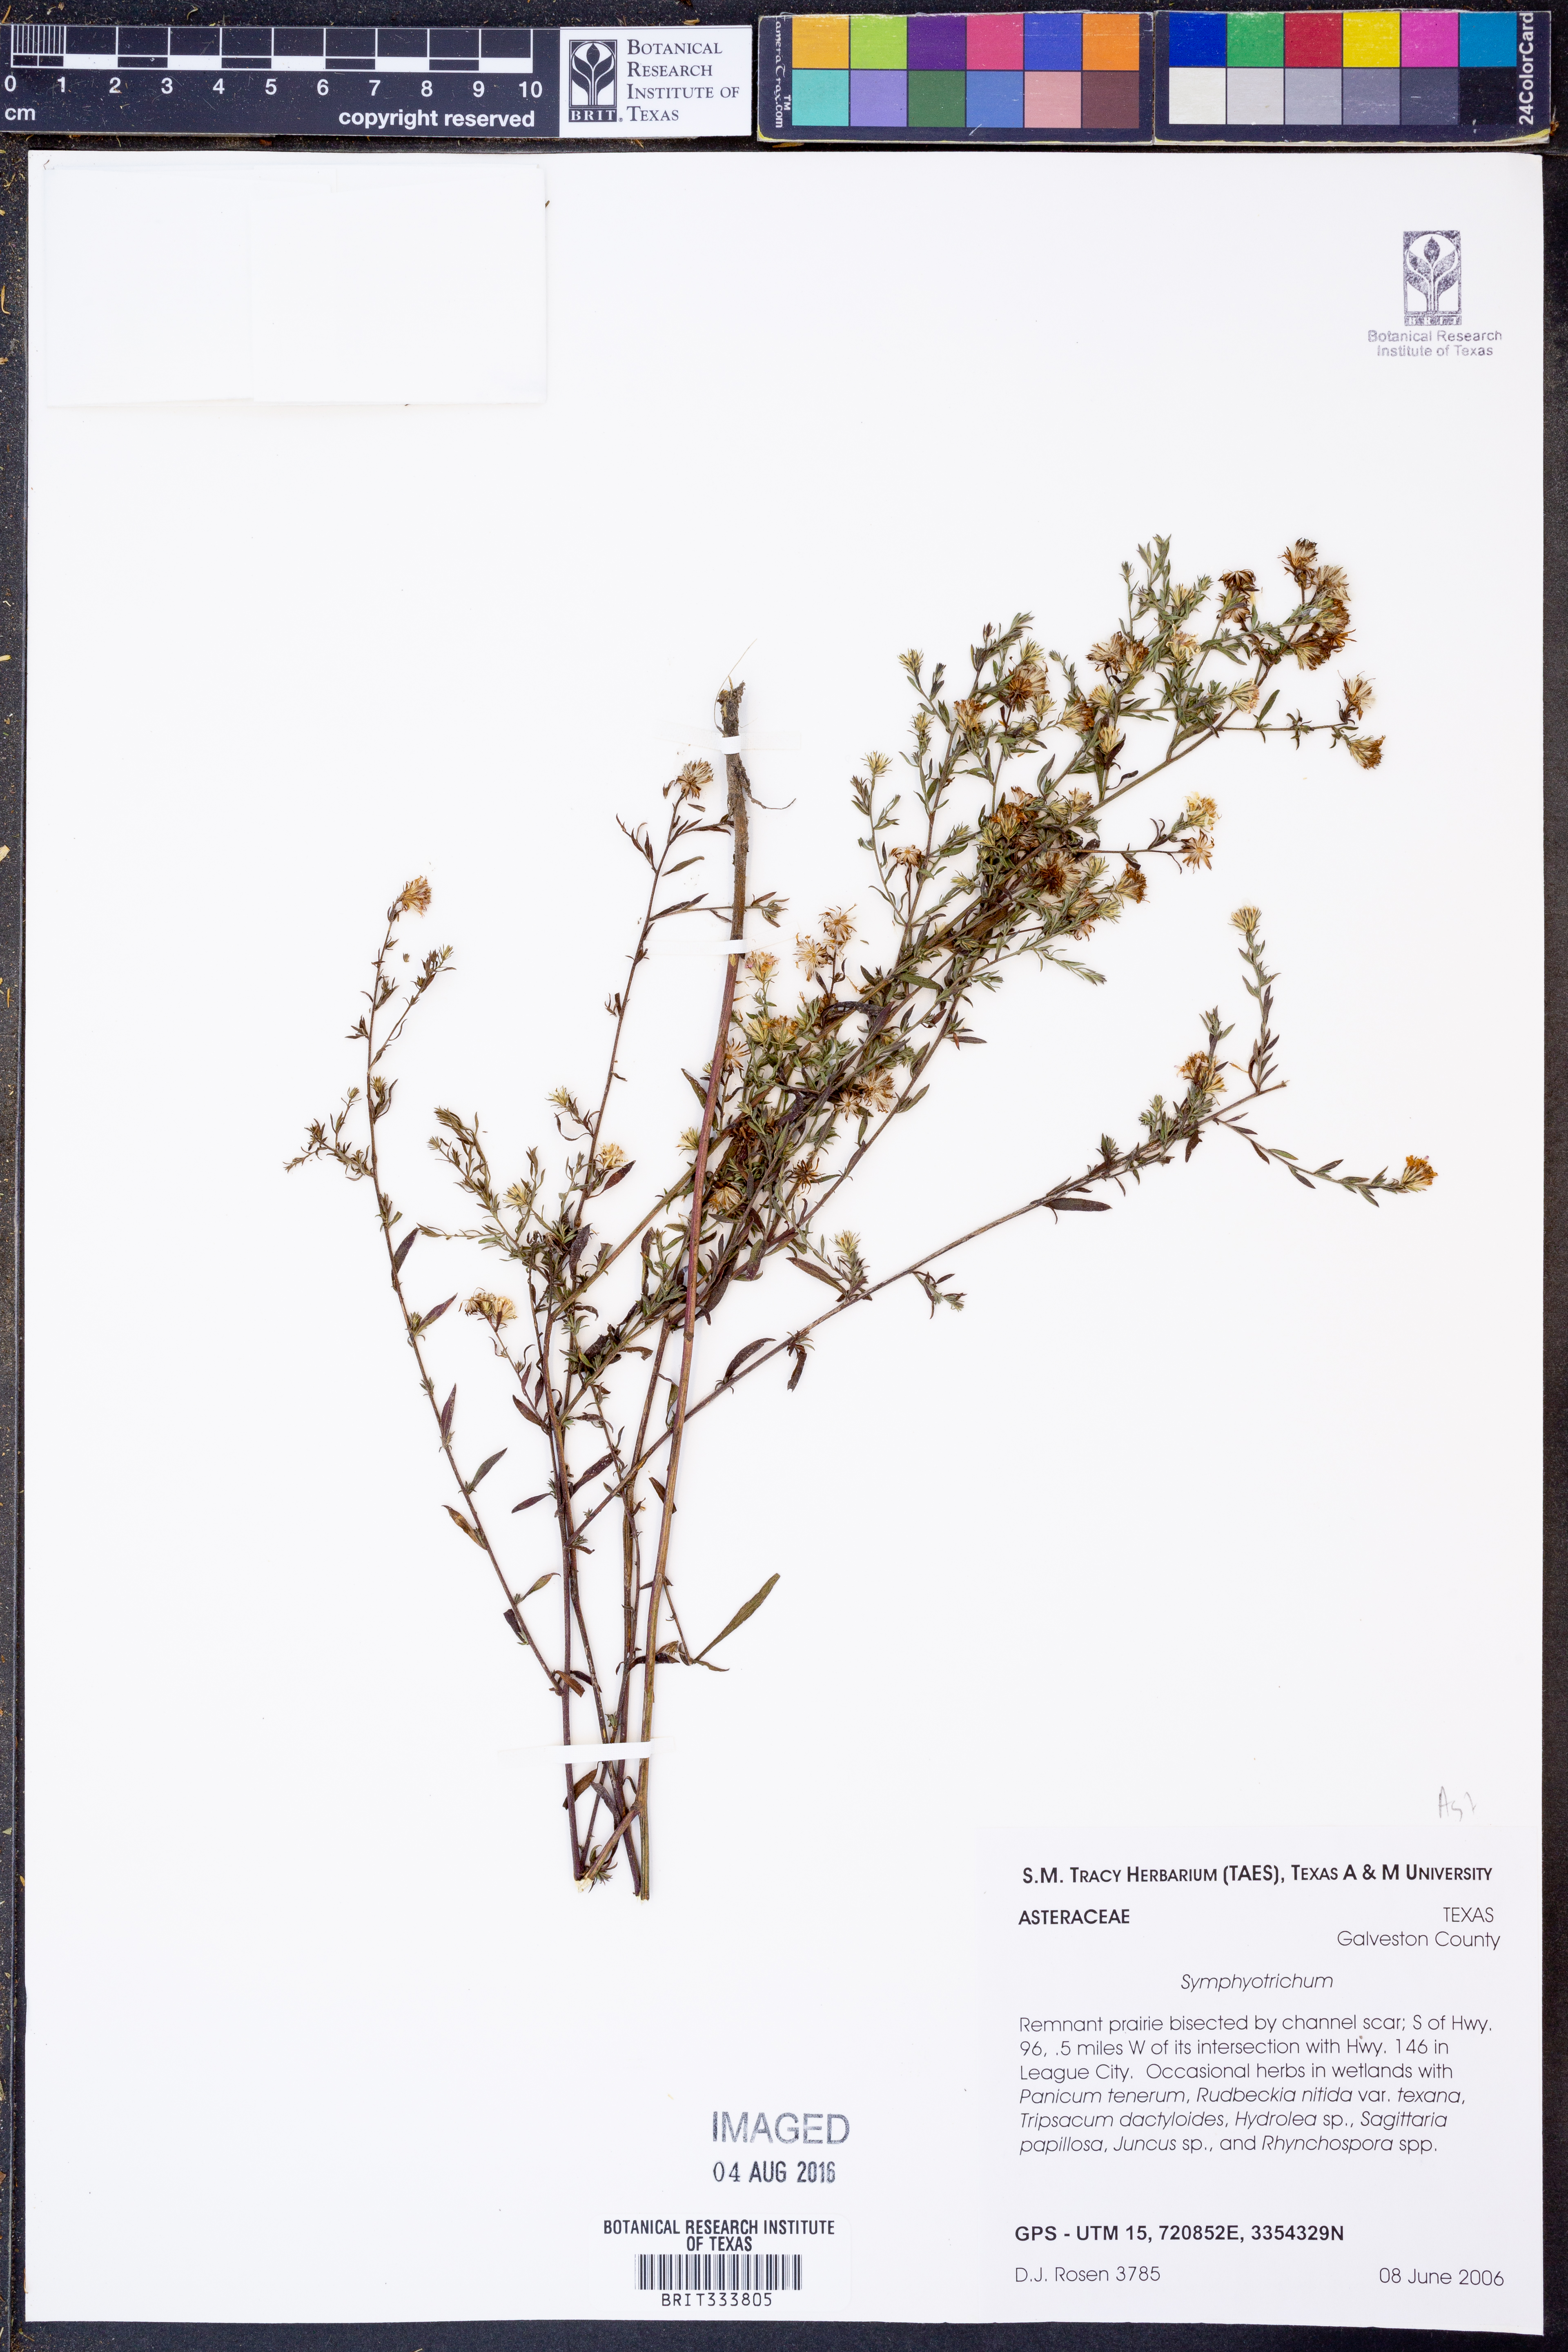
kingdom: Plantae
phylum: Tracheophyta
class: Magnoliopsida
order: Asterales
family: Asteraceae
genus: Symphyotrichum
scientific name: Symphyotrichum
